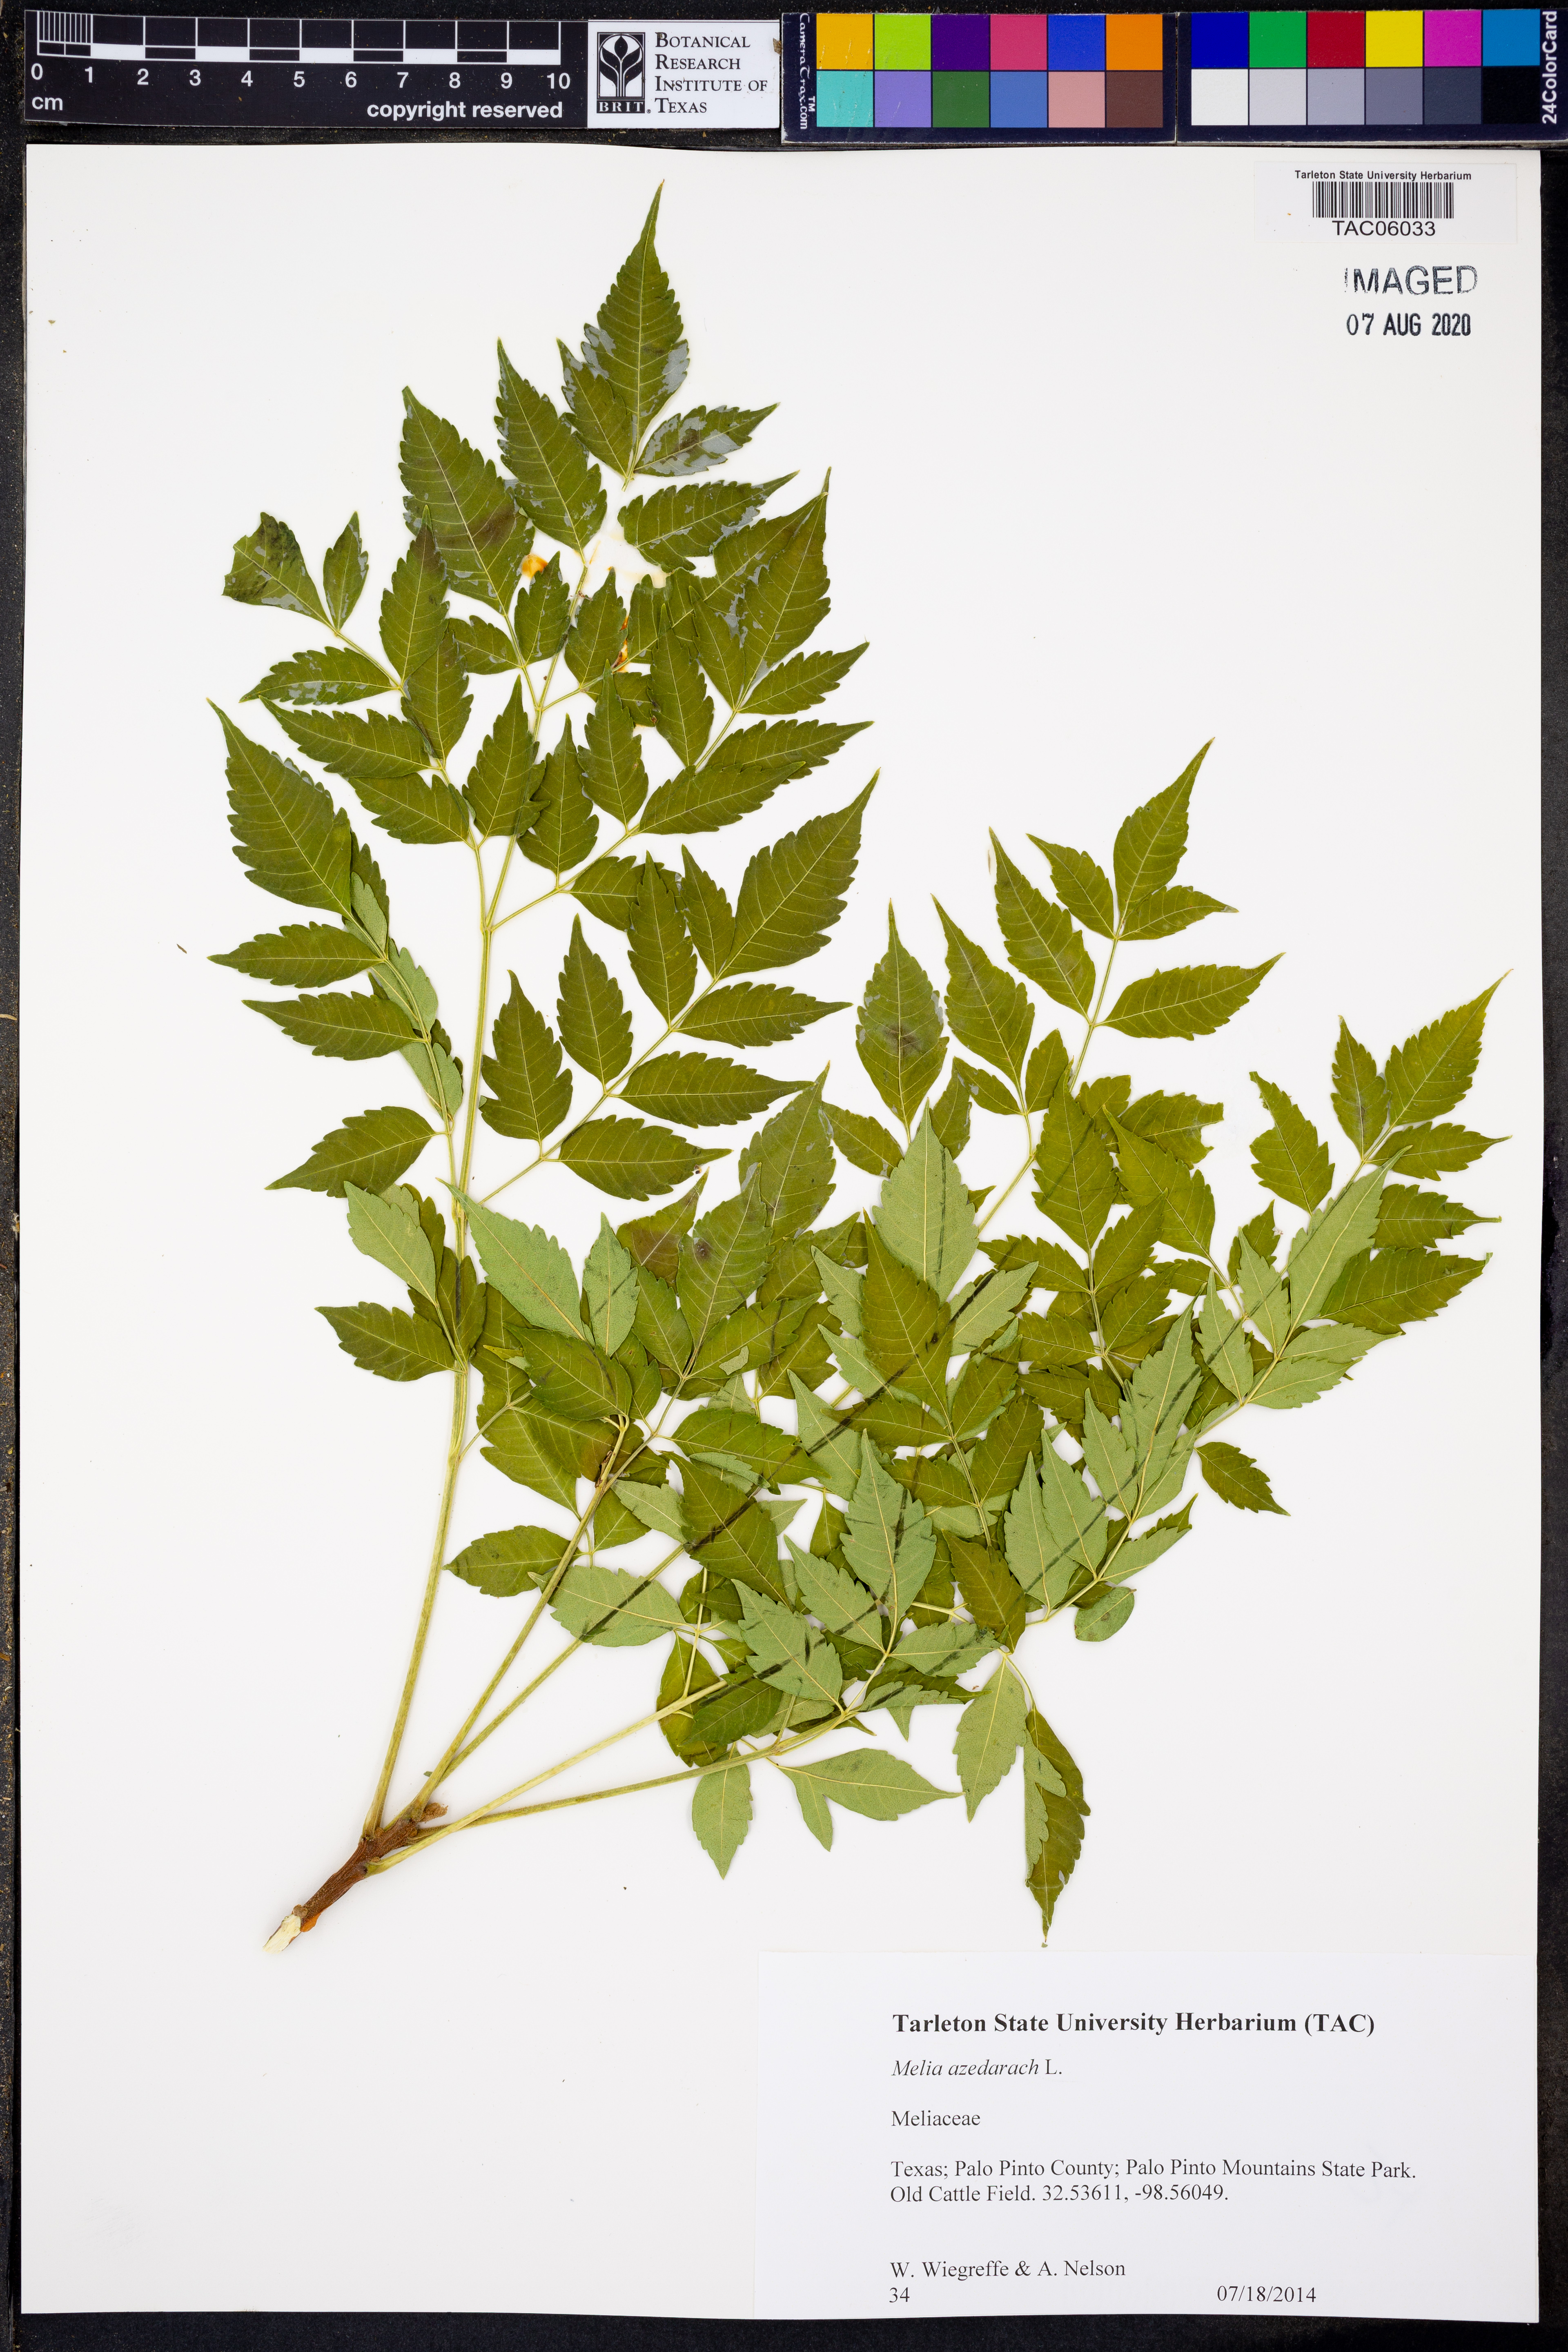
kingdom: Plantae
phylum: Tracheophyta
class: Magnoliopsida
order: Sapindales
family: Meliaceae
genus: Melia
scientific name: Melia azedarach
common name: Chinaberrytree
